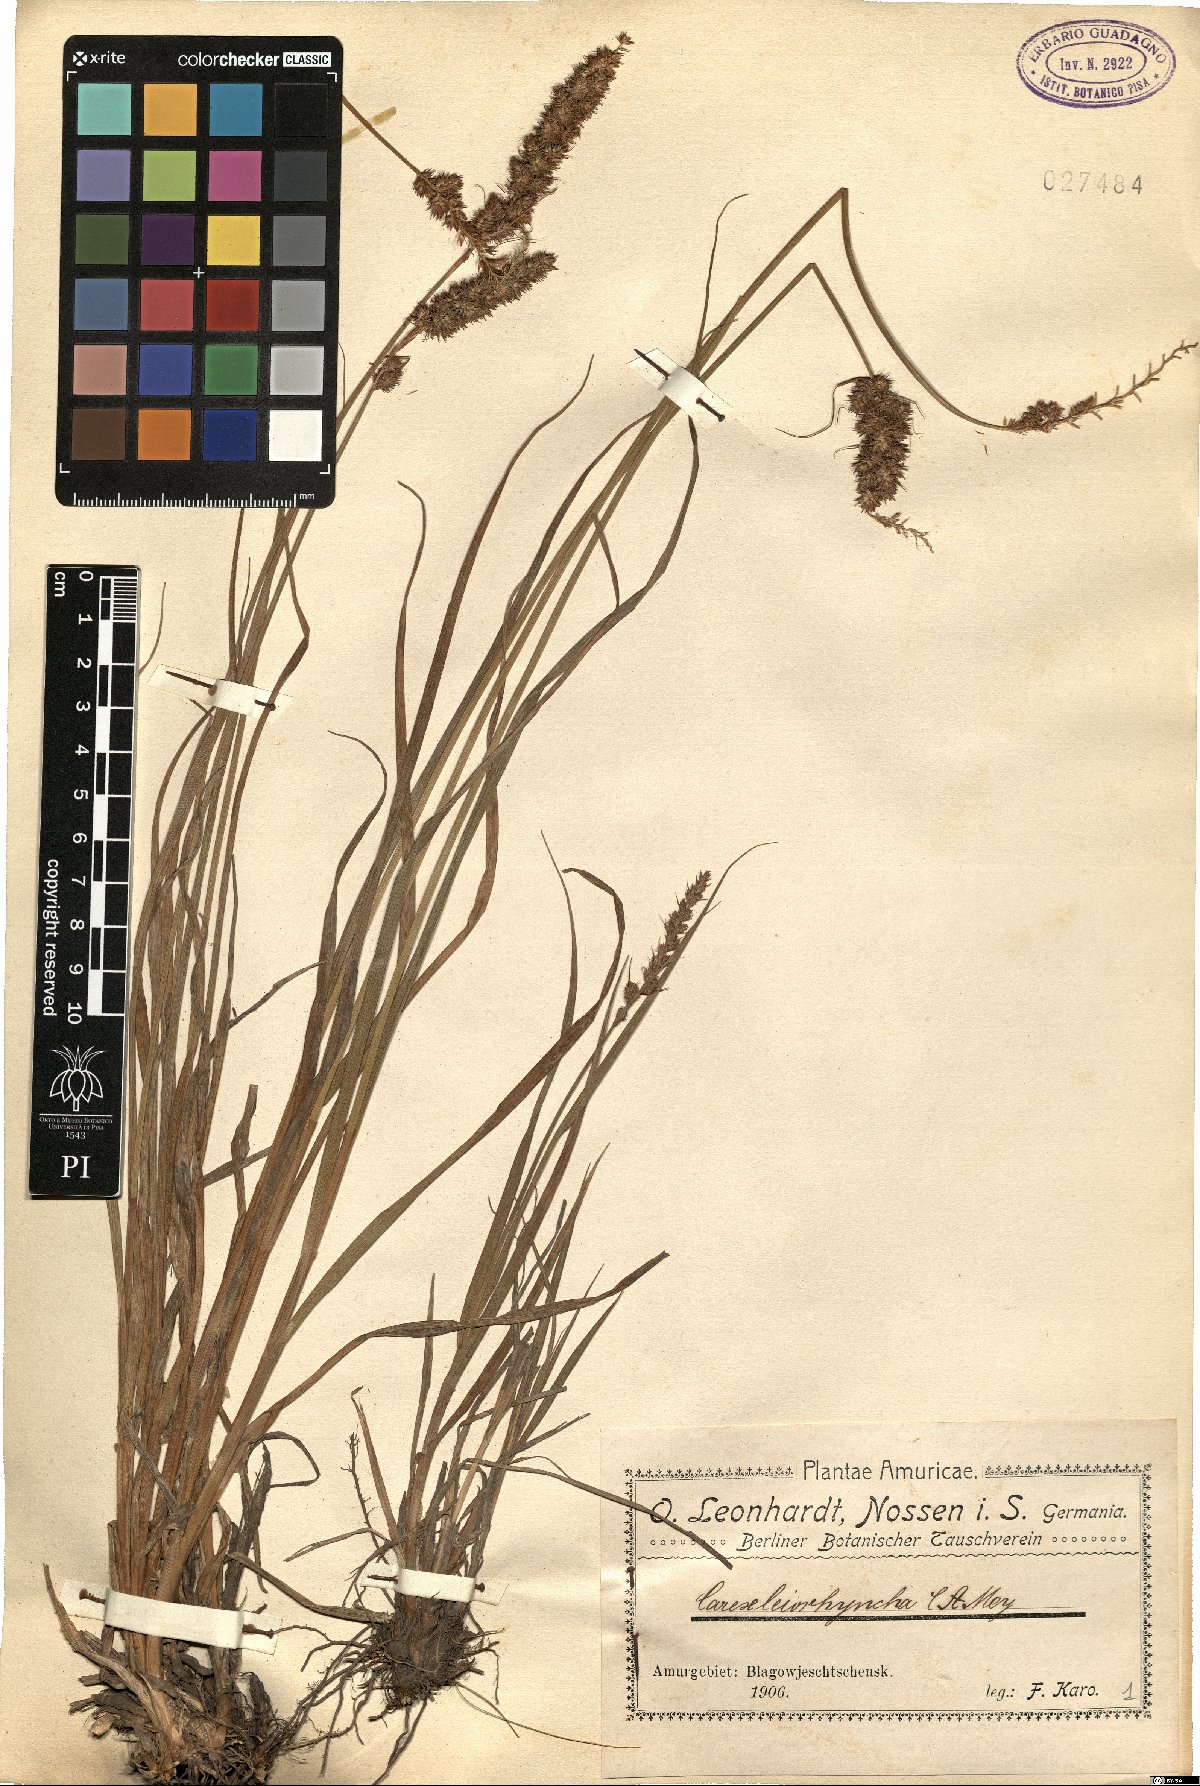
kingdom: Plantae
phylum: Tracheophyta
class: Liliopsida
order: Poales
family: Cyperaceae
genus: Carex
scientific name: Carex leiorhyncha
